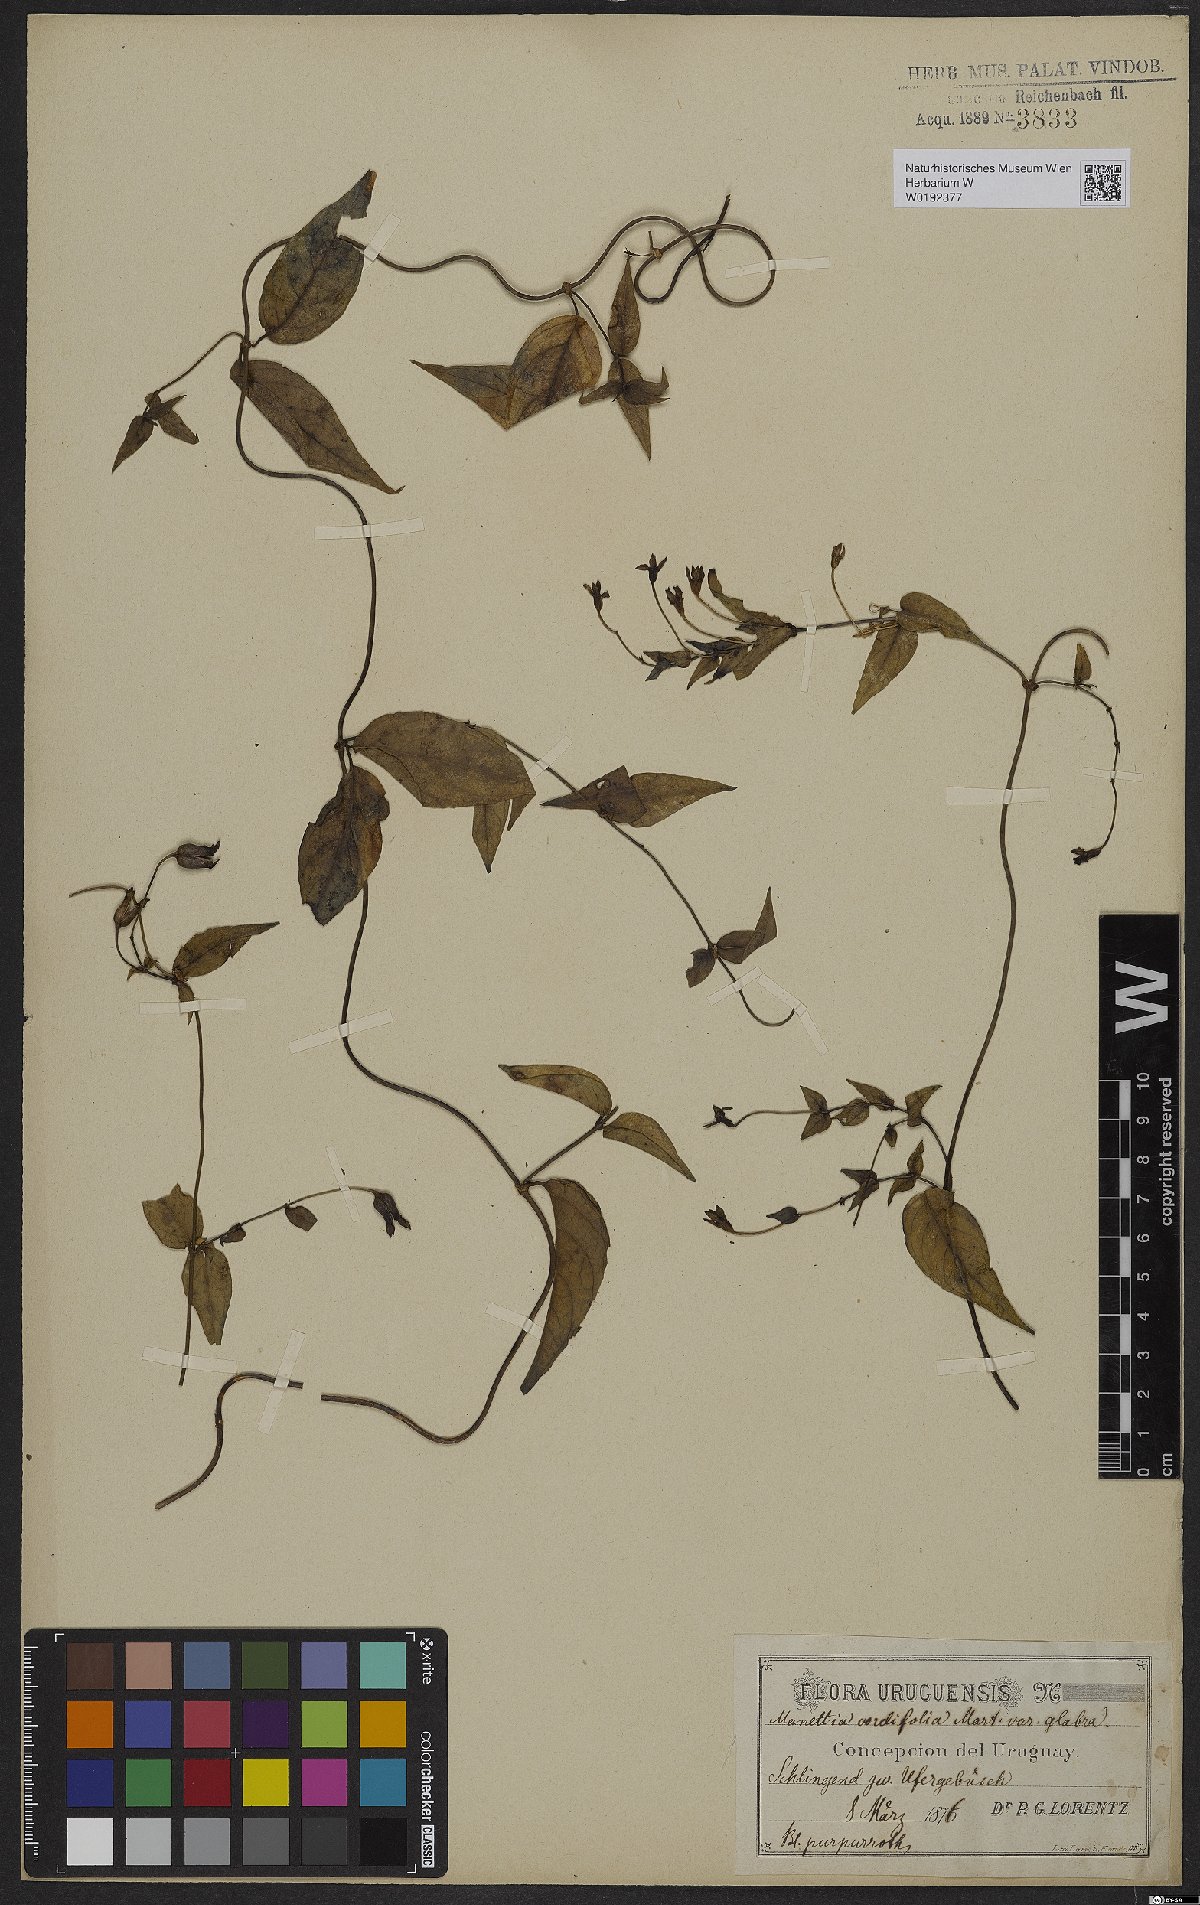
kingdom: Plantae
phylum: Tracheophyta
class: Magnoliopsida
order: Gentianales
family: Rubiaceae
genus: Manettia
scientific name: Manettia cordifolia
